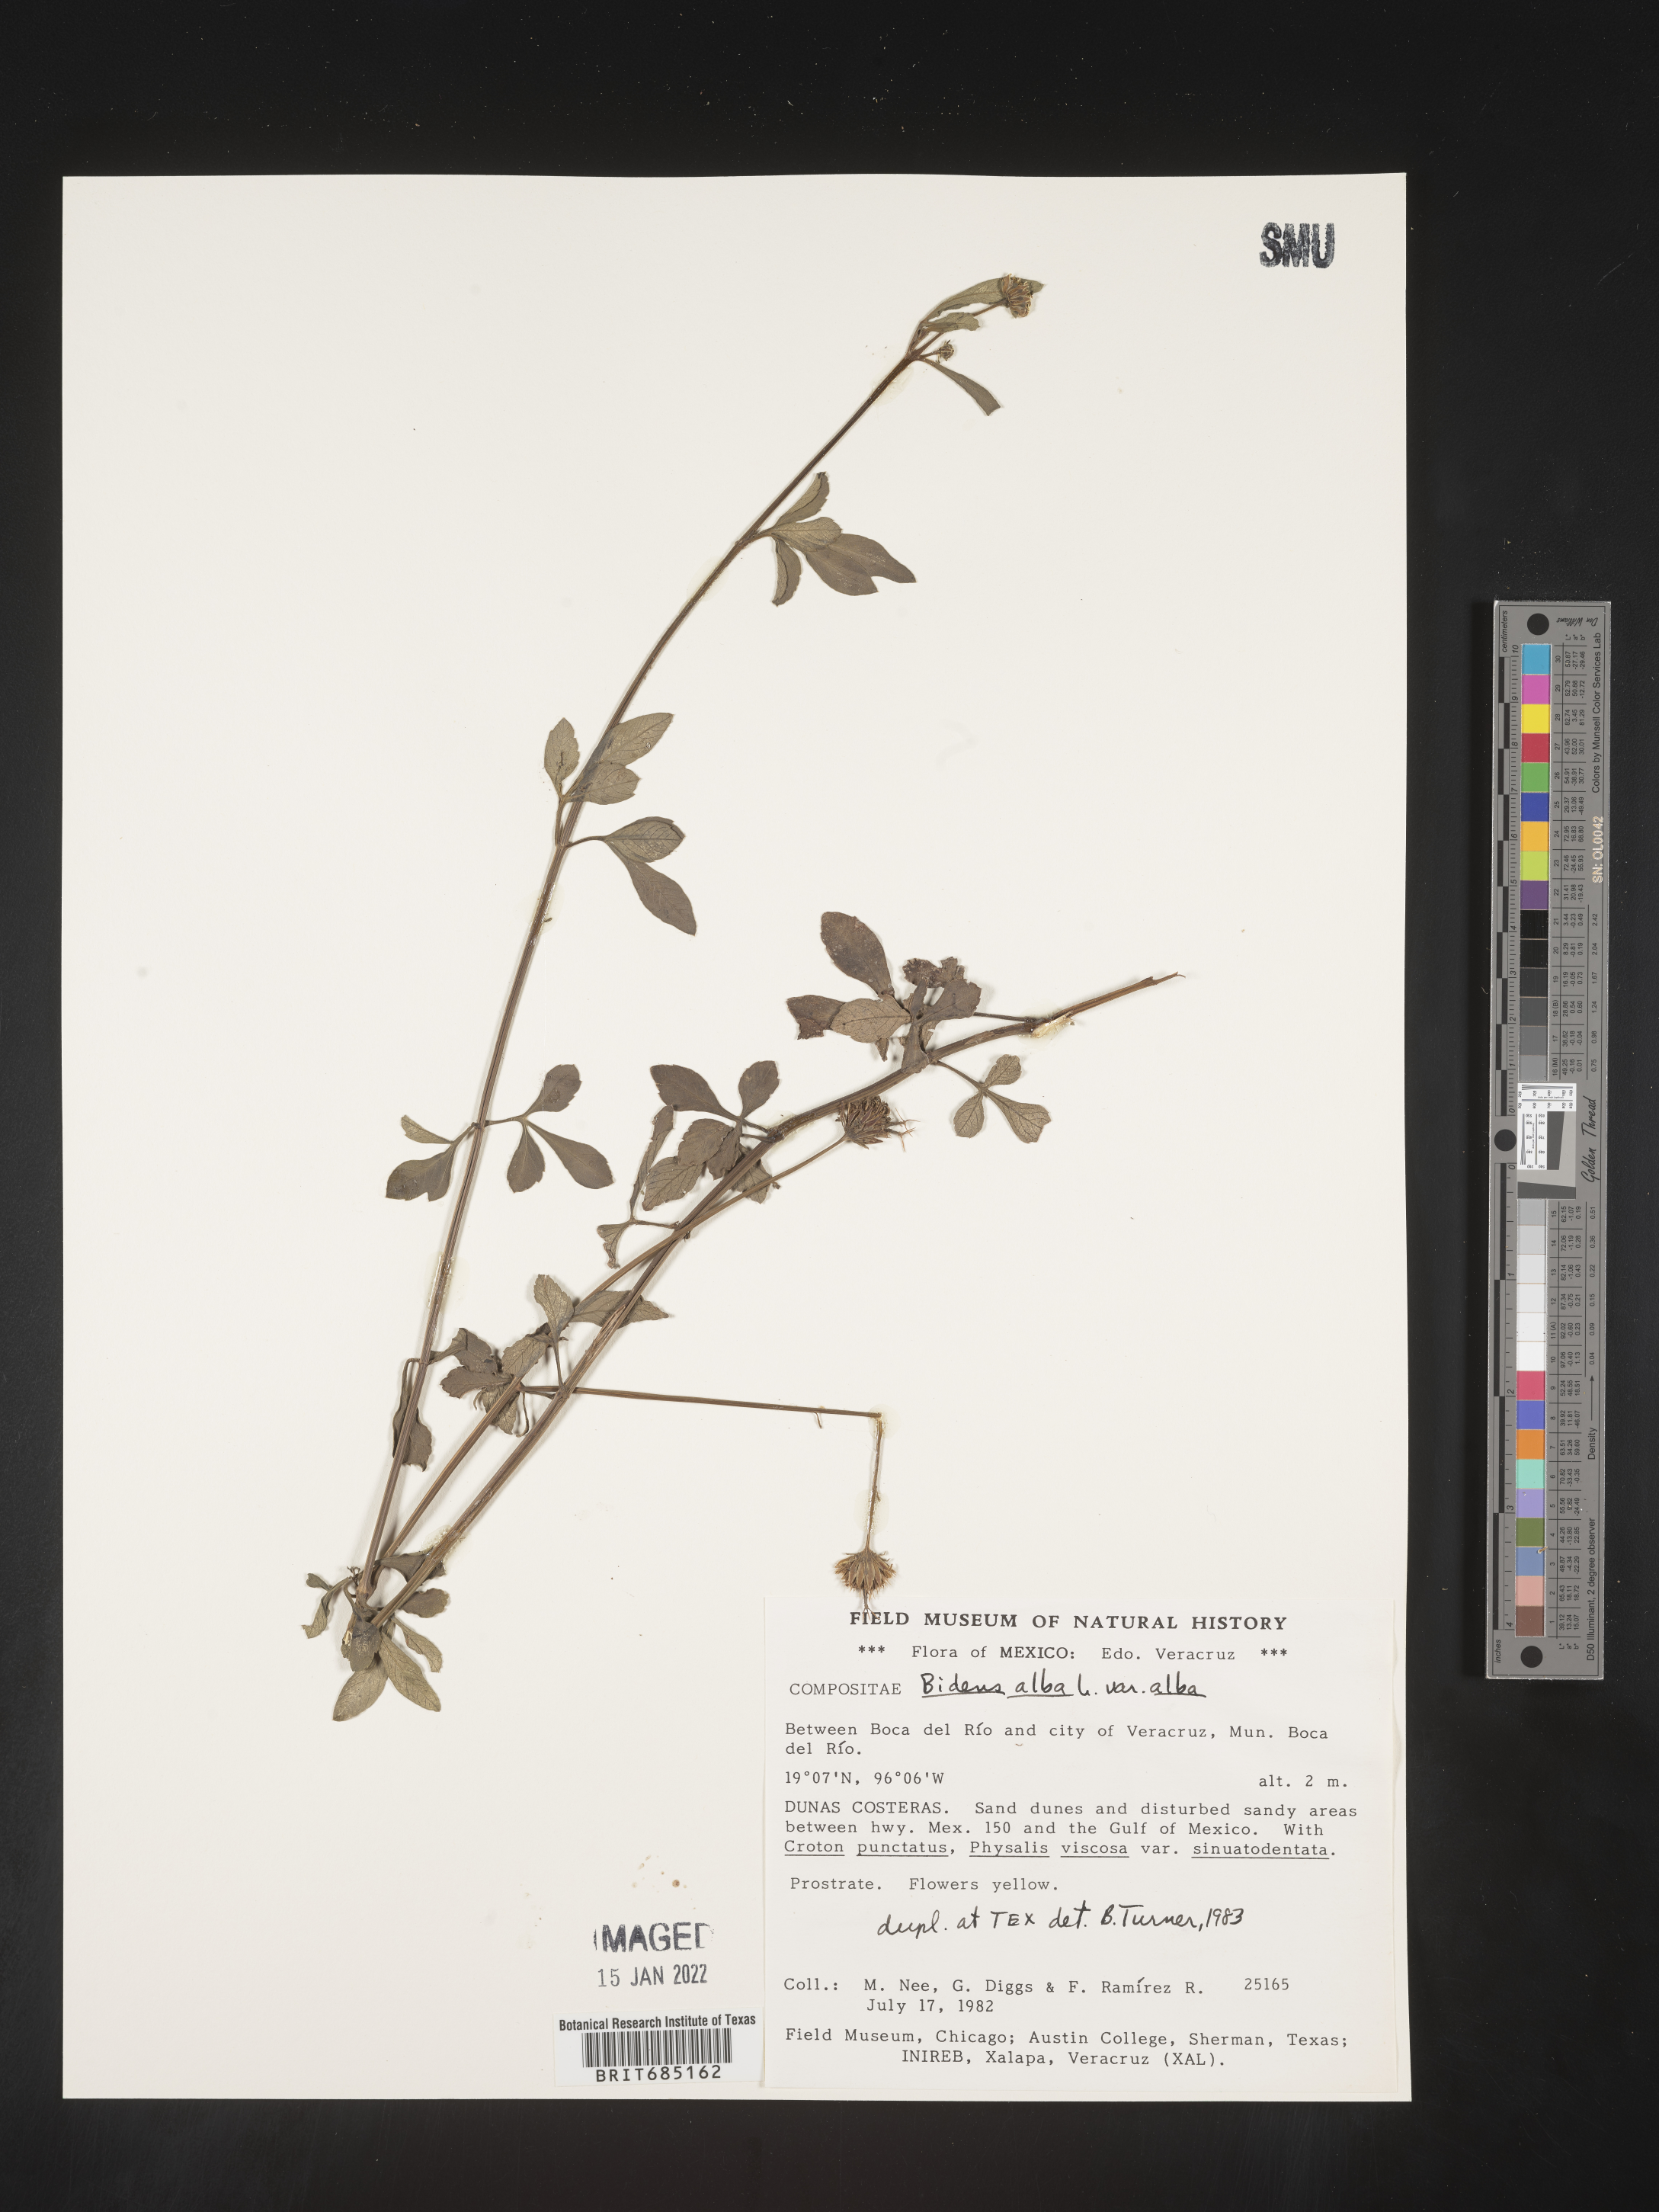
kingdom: Plantae
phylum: Tracheophyta
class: Magnoliopsida
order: Asterales
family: Asteraceae
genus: Bidens
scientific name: Bidens
